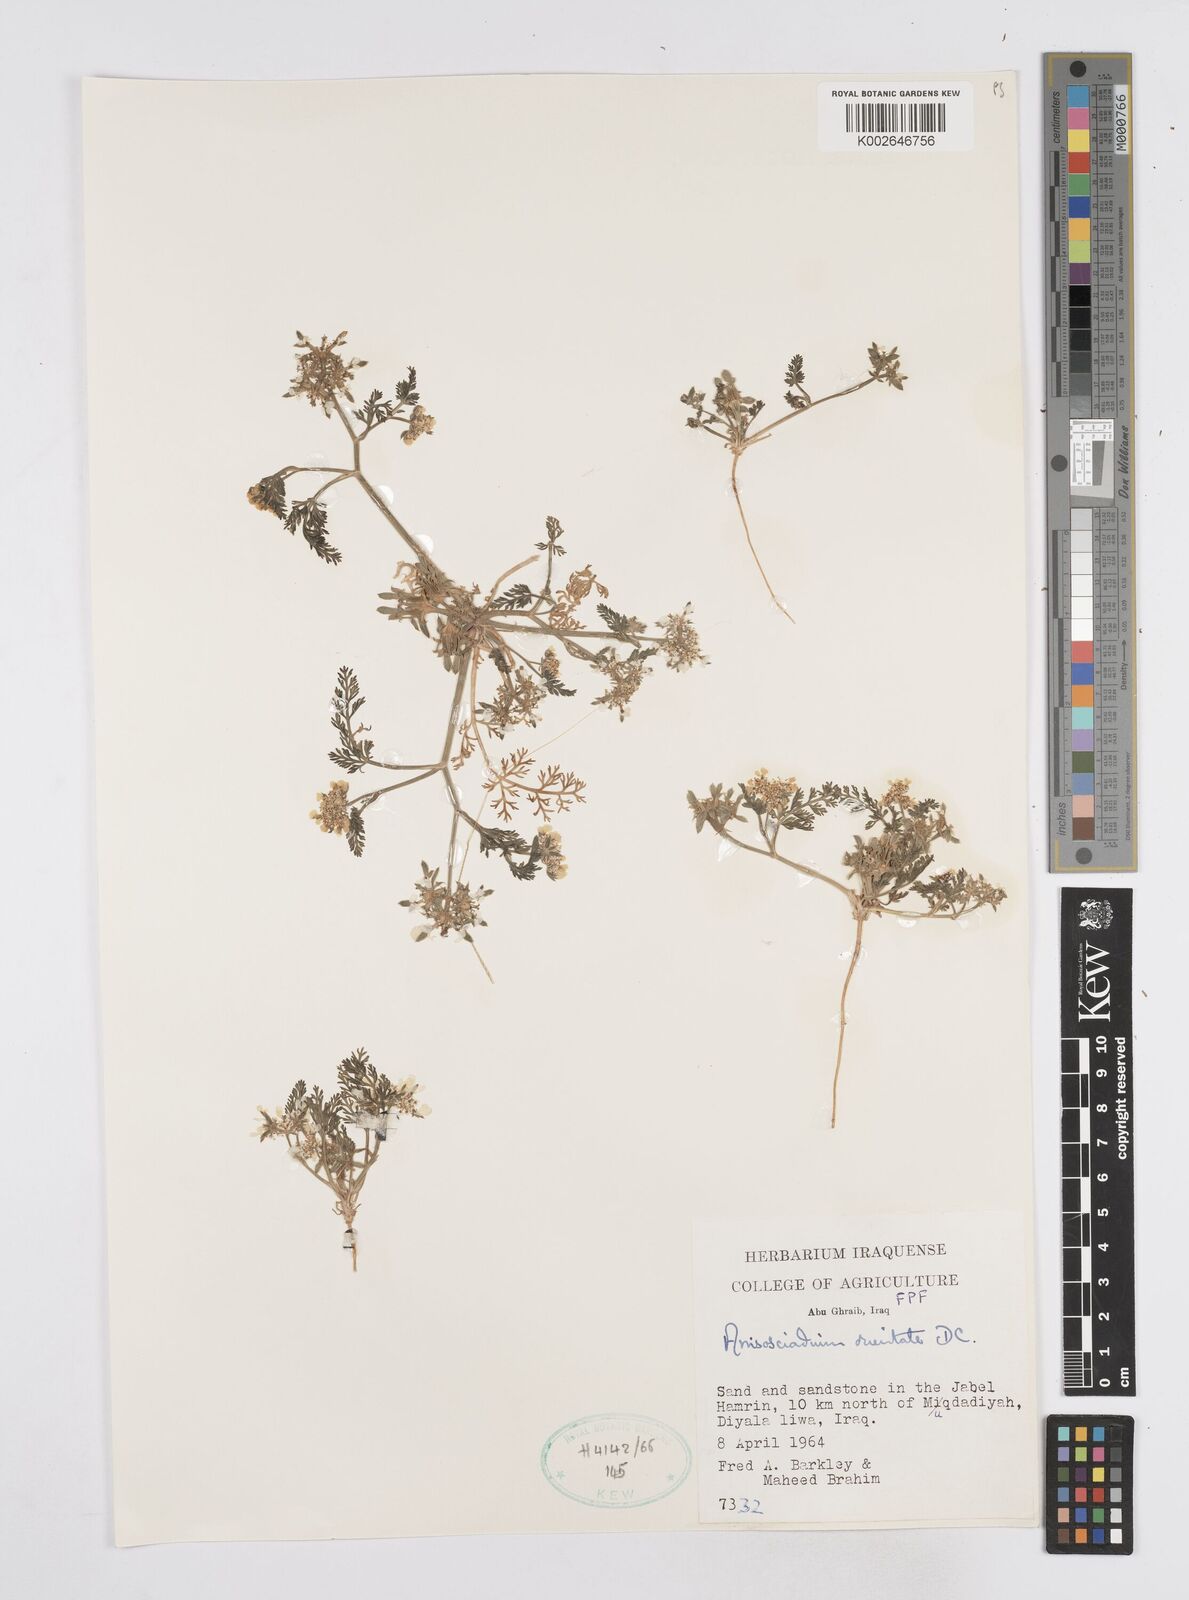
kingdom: Plantae
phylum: Tracheophyta
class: Magnoliopsida
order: Apiales
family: Apiaceae
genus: Anisosciadium
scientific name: Anisosciadium orientale
